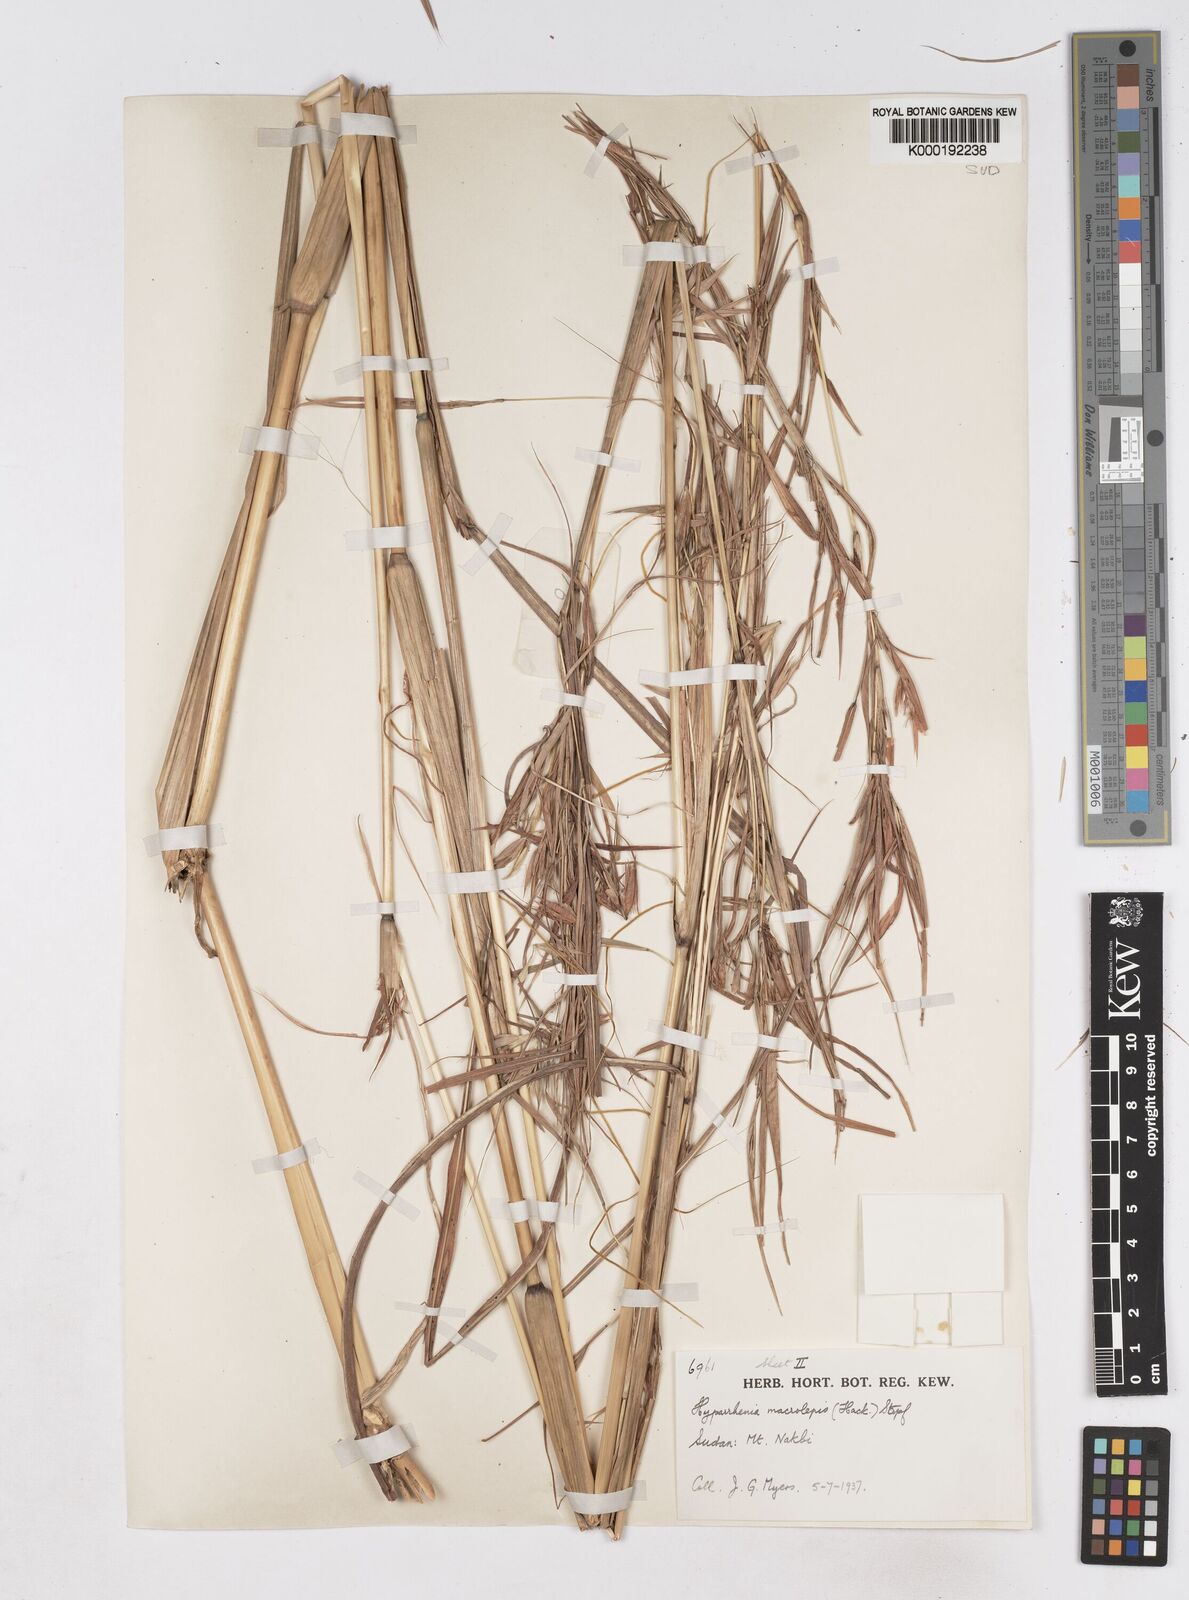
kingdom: Plantae
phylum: Tracheophyta
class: Liliopsida
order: Poales
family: Poaceae
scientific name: Poaceae
